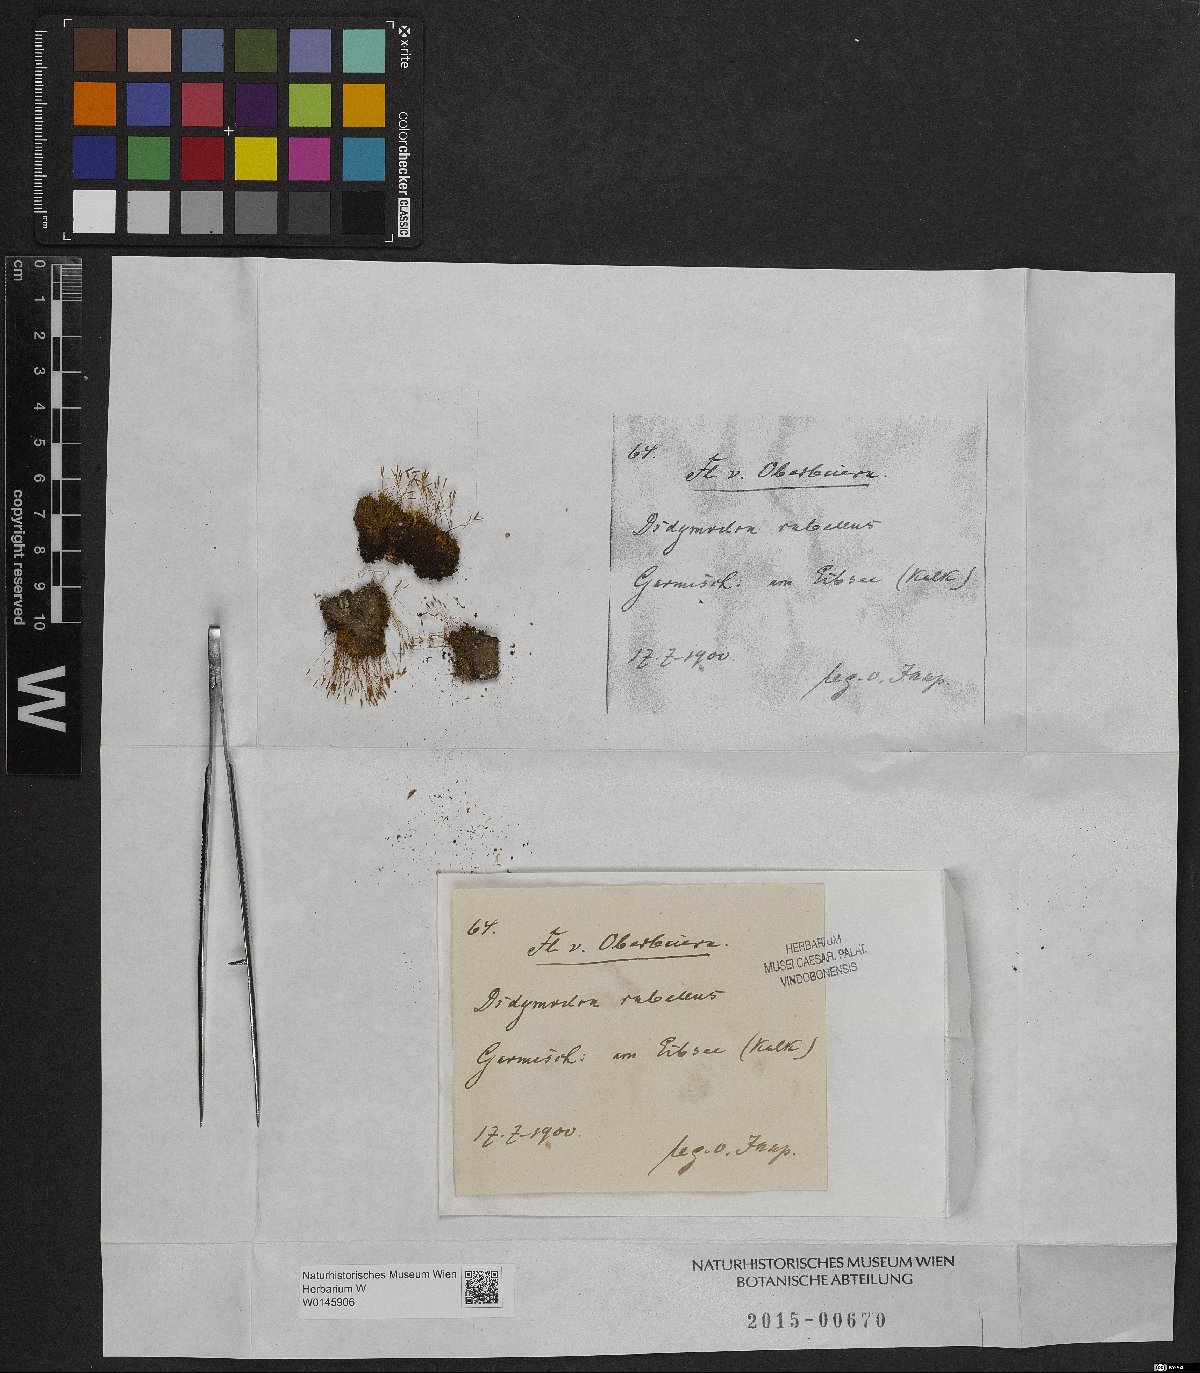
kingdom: Plantae
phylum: Bryophyta
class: Bryopsida
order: Pottiales
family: Pottiaceae
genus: Bryoerythrophyllum
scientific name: Bryoerythrophyllum recurvirostrum
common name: Red beard moss
